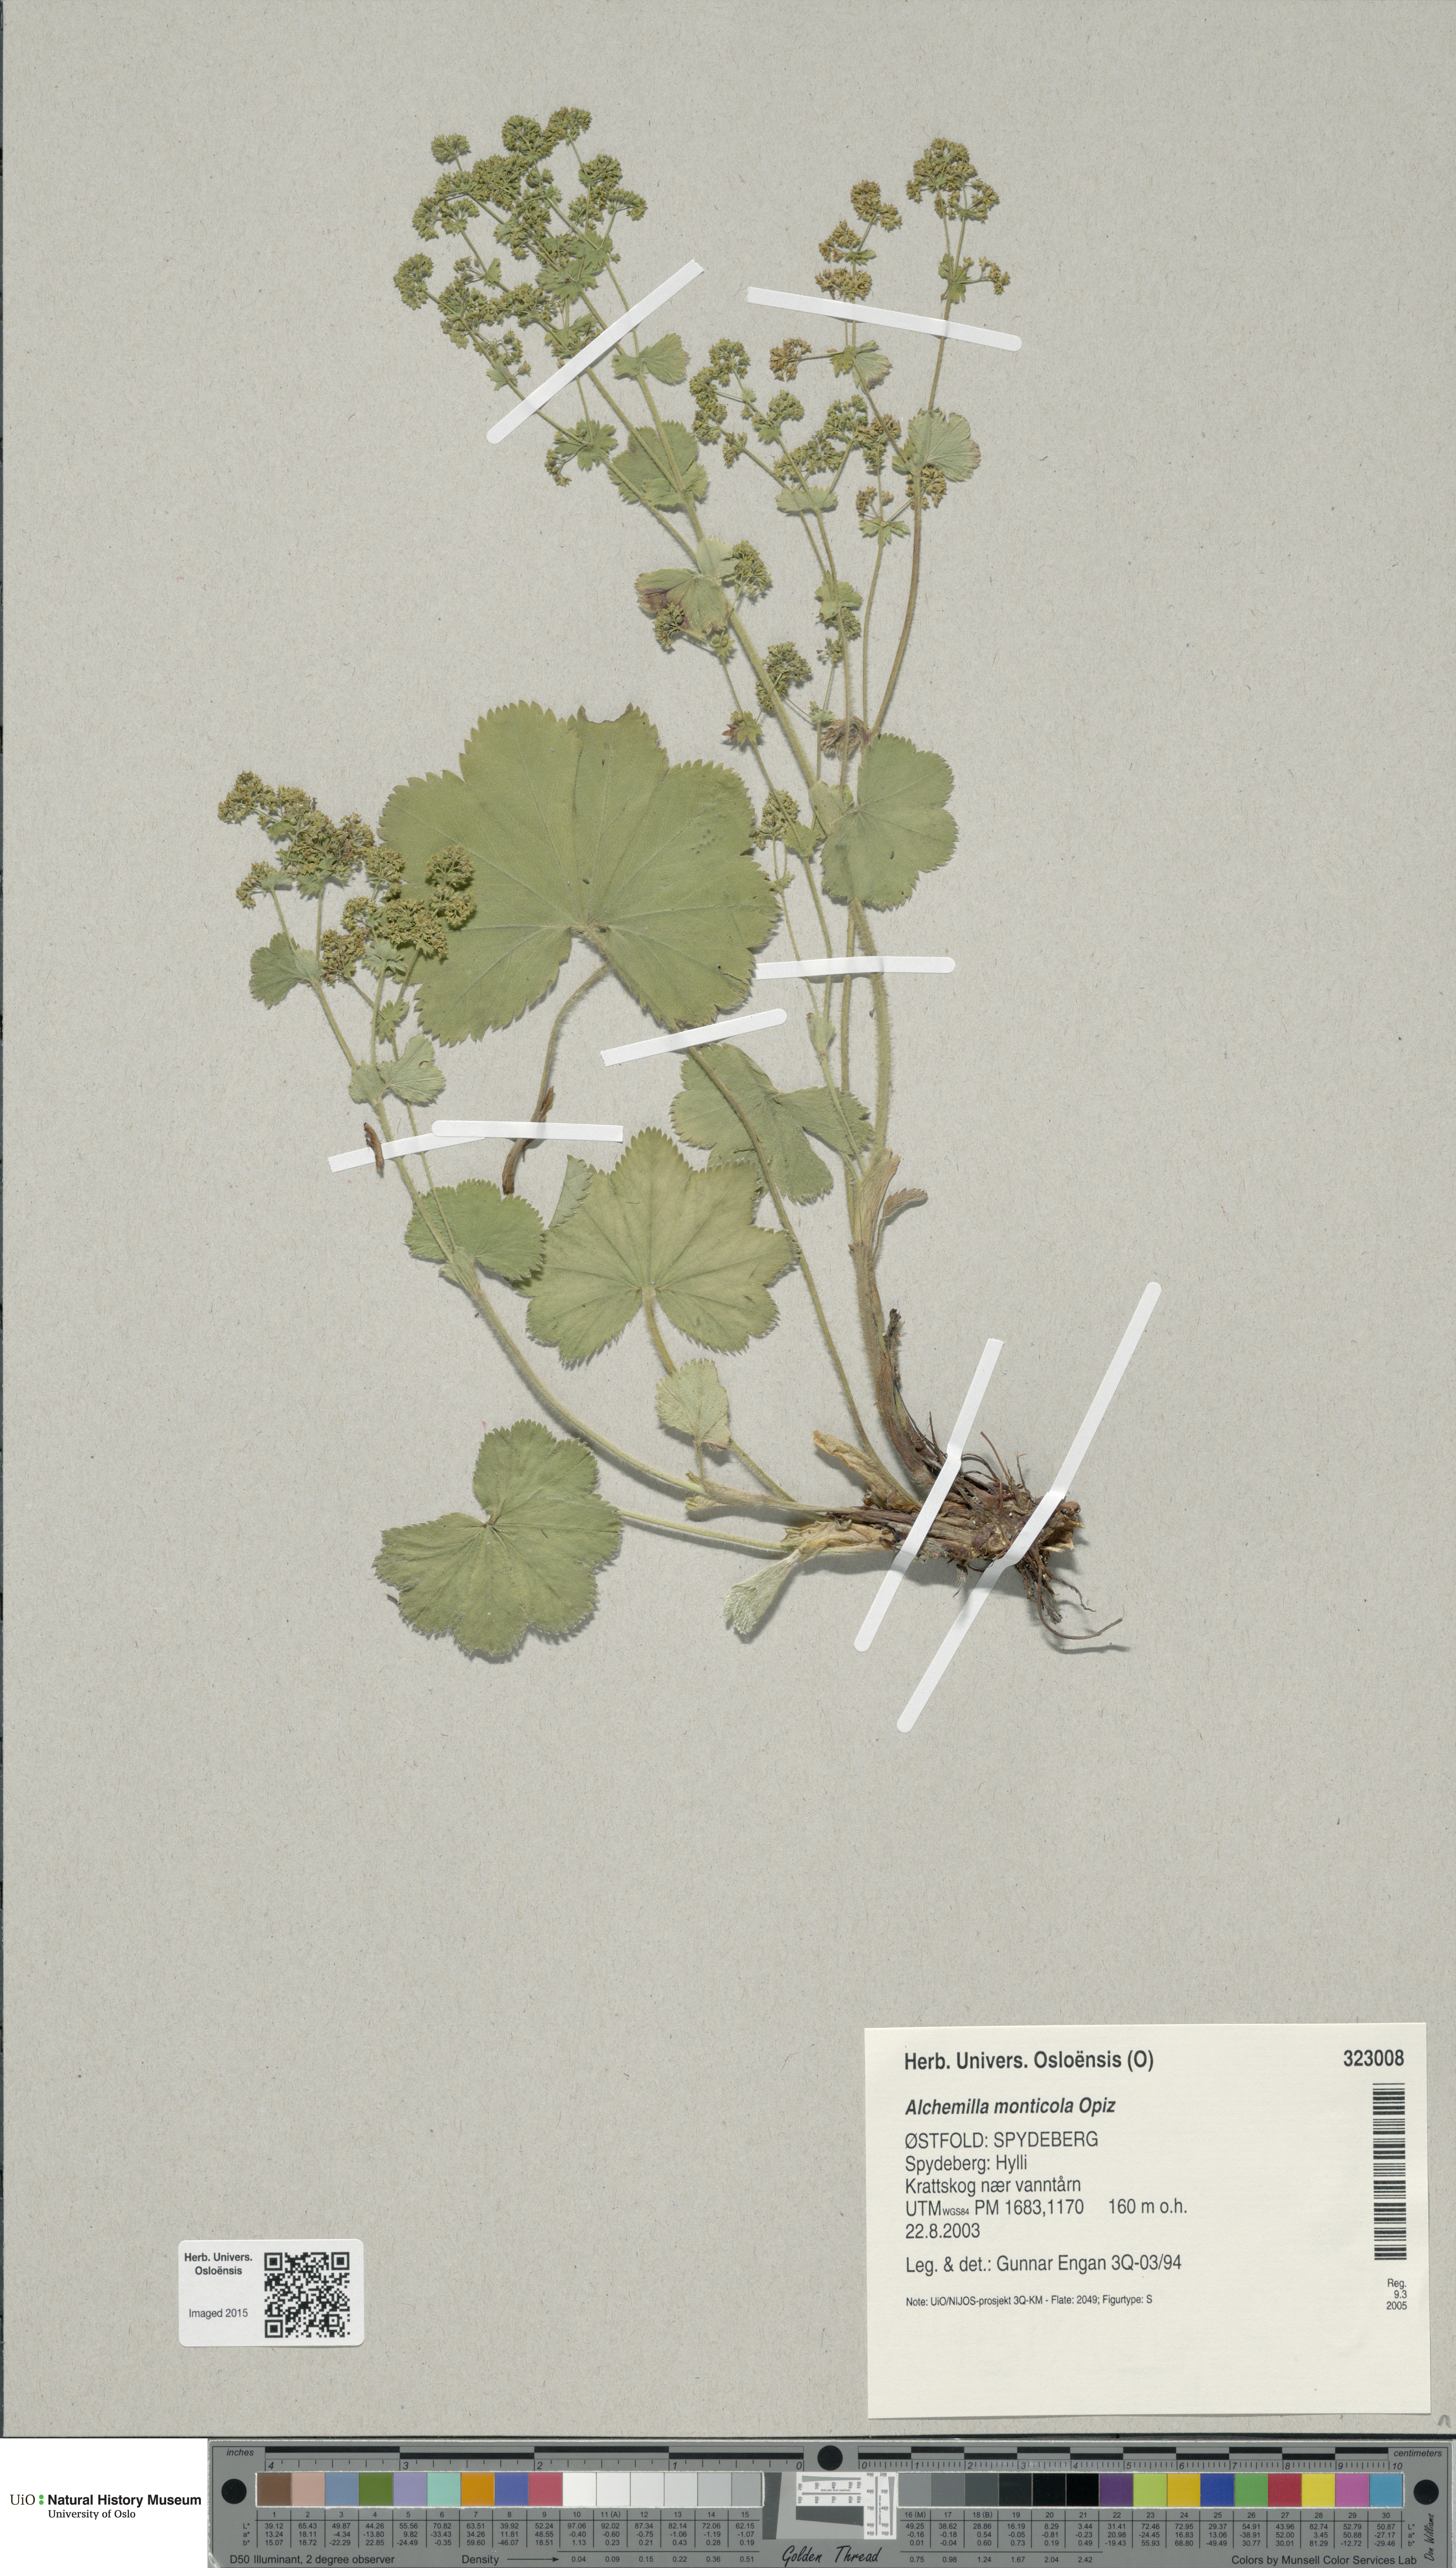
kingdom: Plantae
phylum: Tracheophyta
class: Magnoliopsida
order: Rosales
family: Rosaceae
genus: Alchemilla
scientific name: Alchemilla monticola
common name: Hairy lady's mantle
